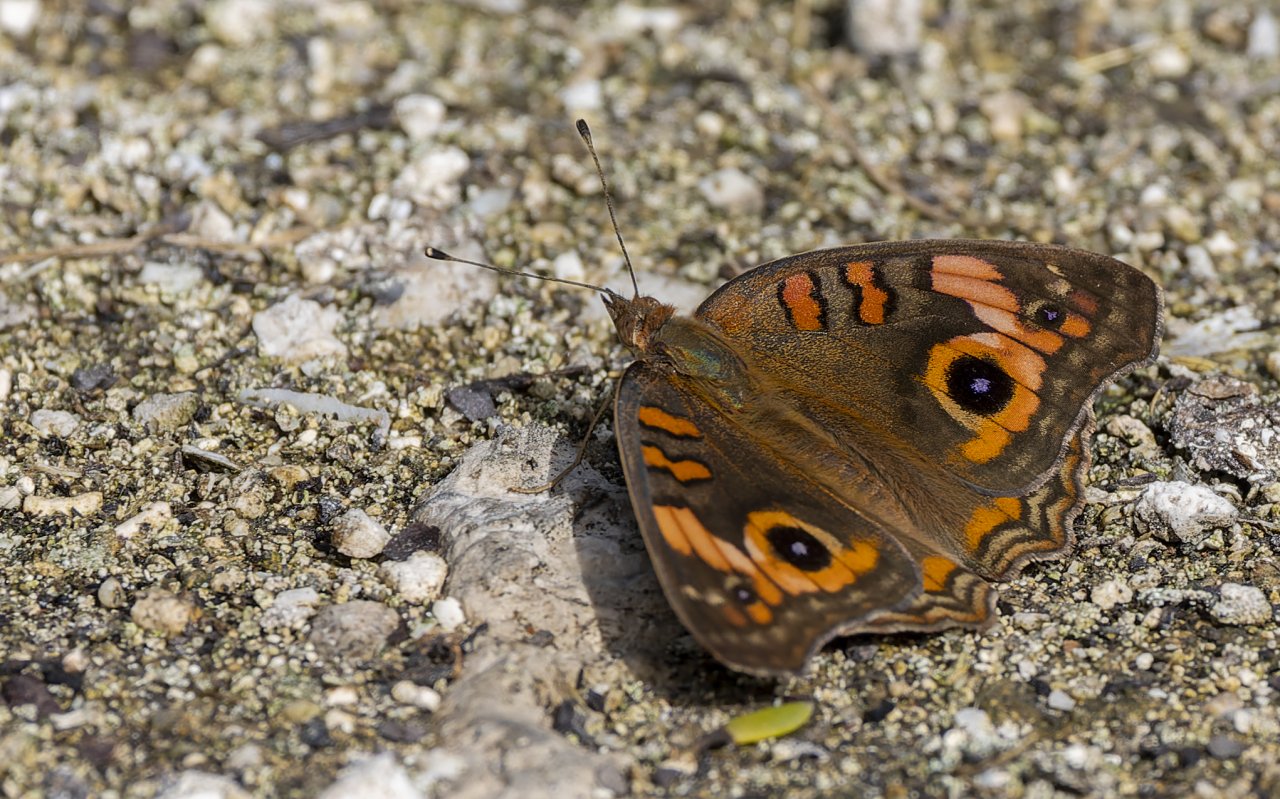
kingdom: Animalia
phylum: Arthropoda
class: Insecta
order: Lepidoptera
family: Nymphalidae
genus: Junonia
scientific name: Junonia evarete
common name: Mangrove Buckeye
